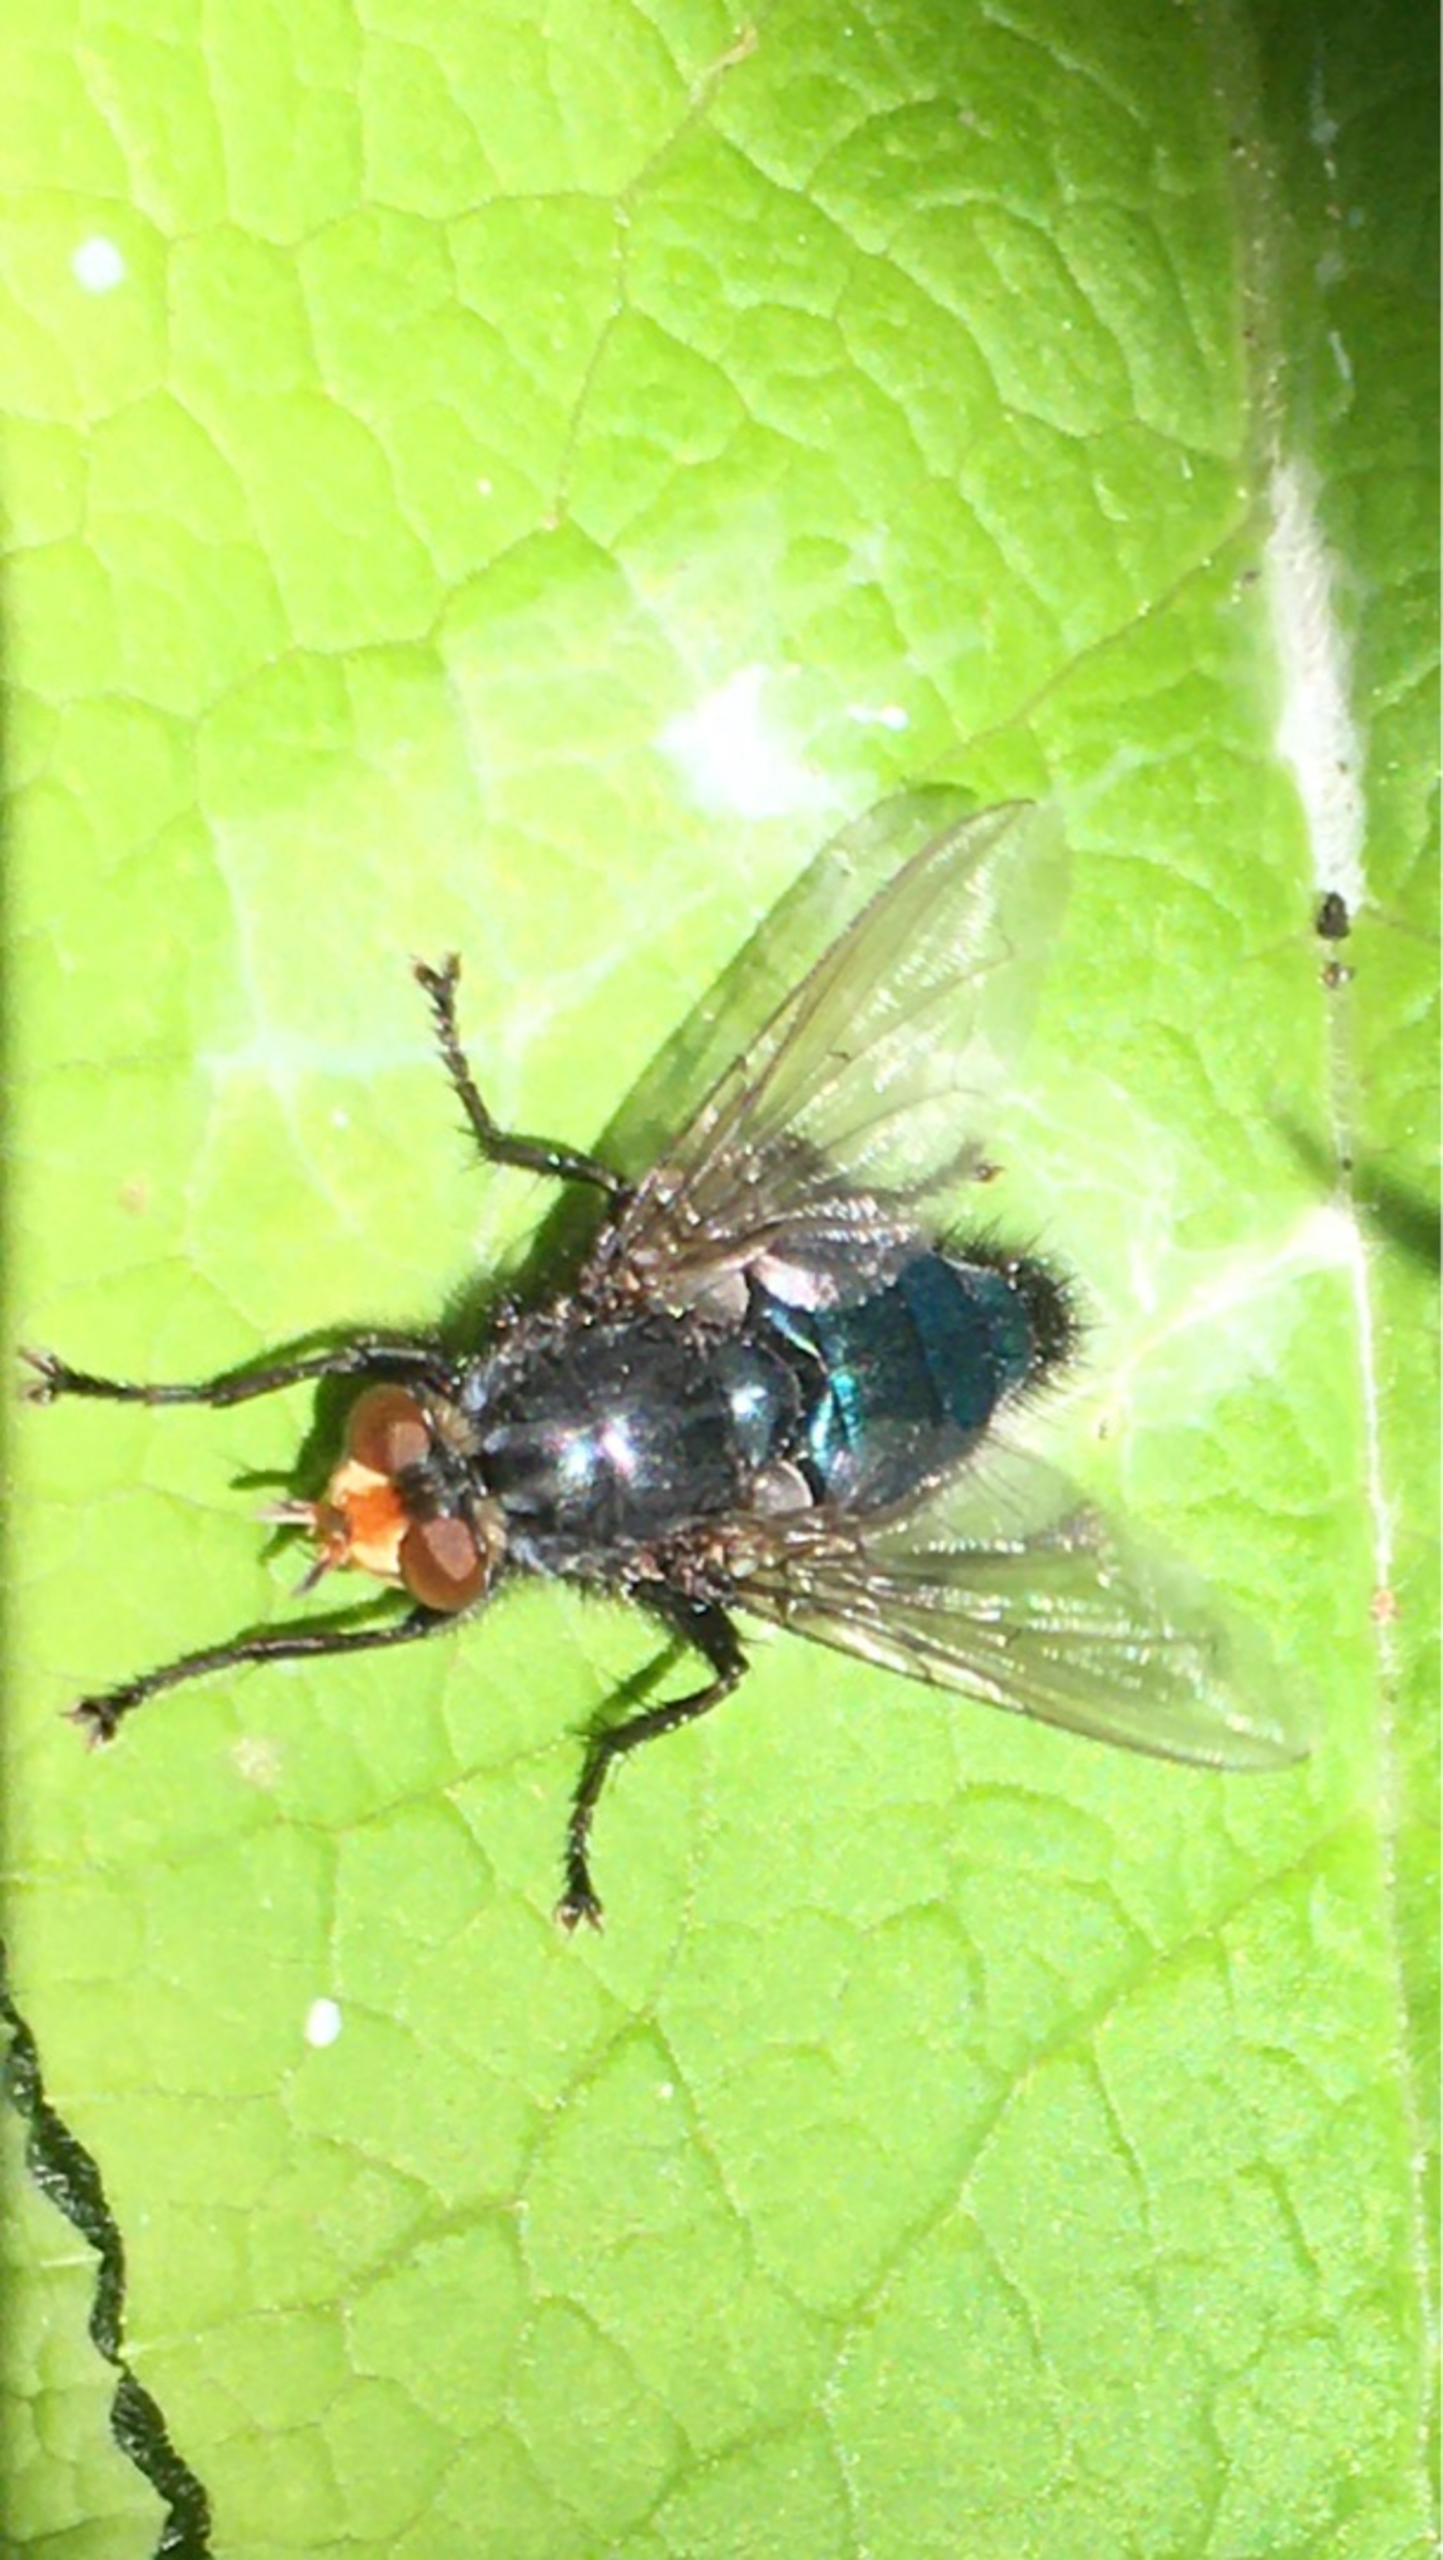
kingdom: Animalia
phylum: Arthropoda
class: Insecta
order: Diptera
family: Calliphoridae
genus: Cynomya
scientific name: Cynomya mortuorum
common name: Dødsflue
